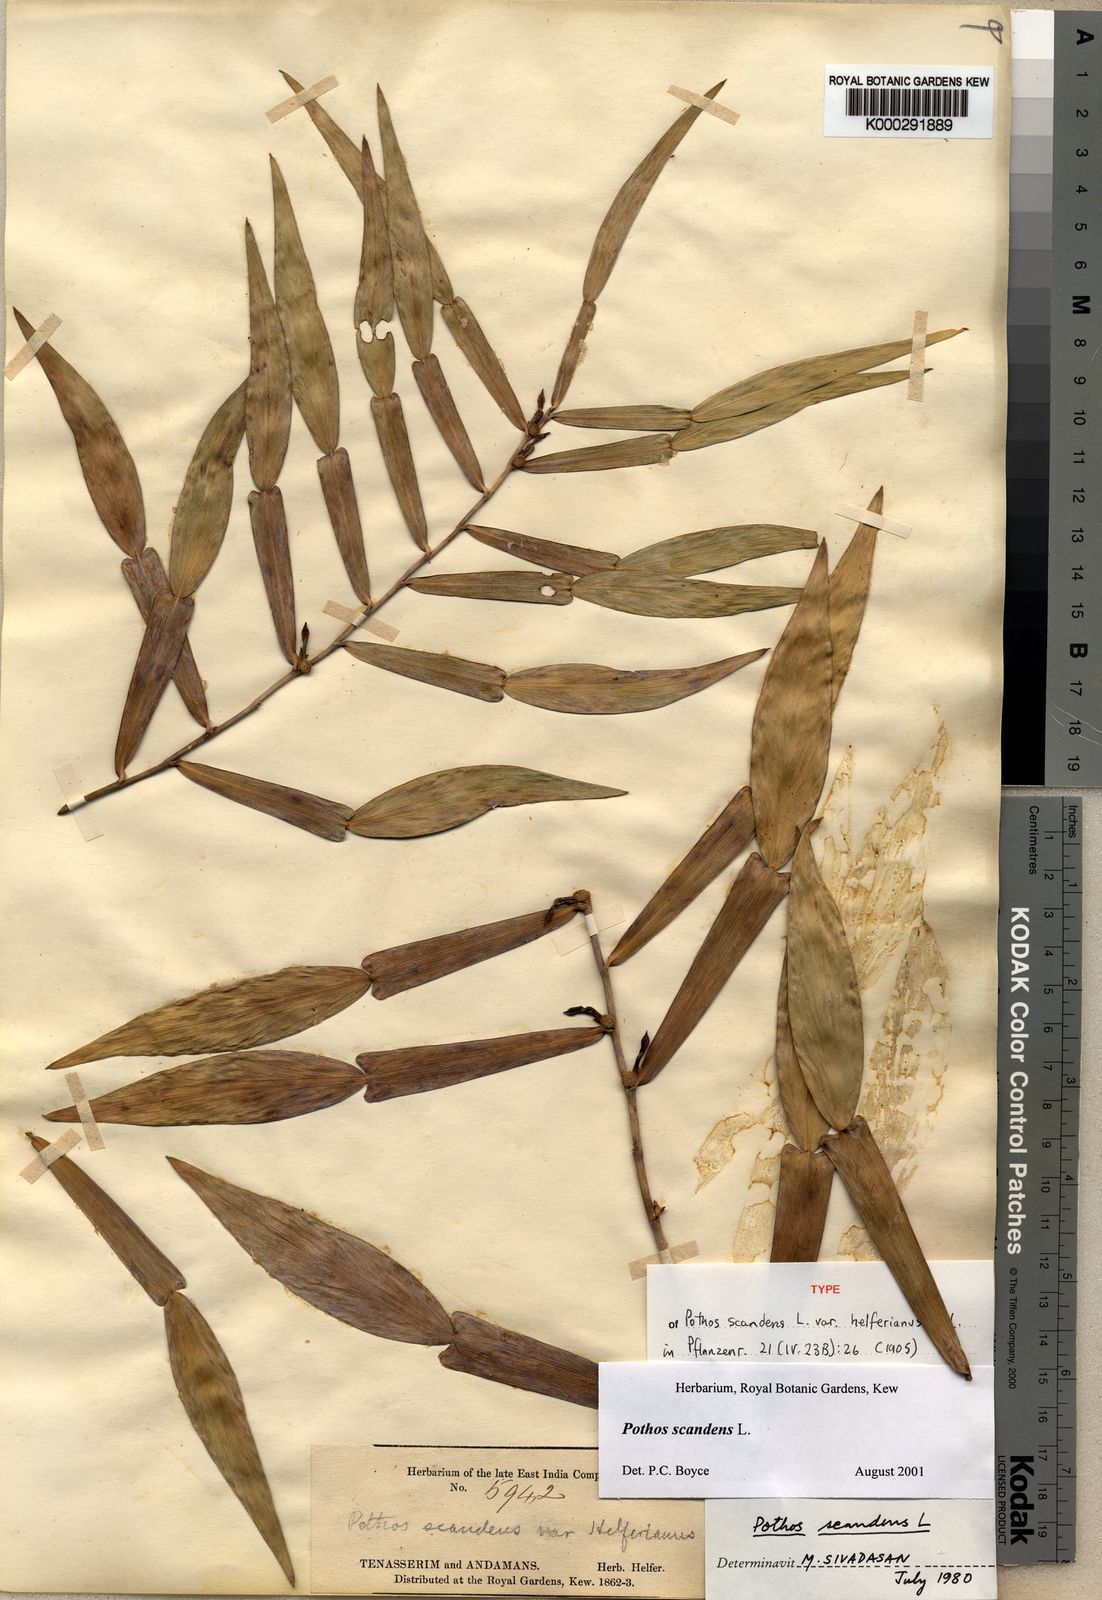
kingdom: Plantae
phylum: Tracheophyta
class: Liliopsida
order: Alismatales
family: Araceae
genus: Pothos
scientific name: Pothos scandens
